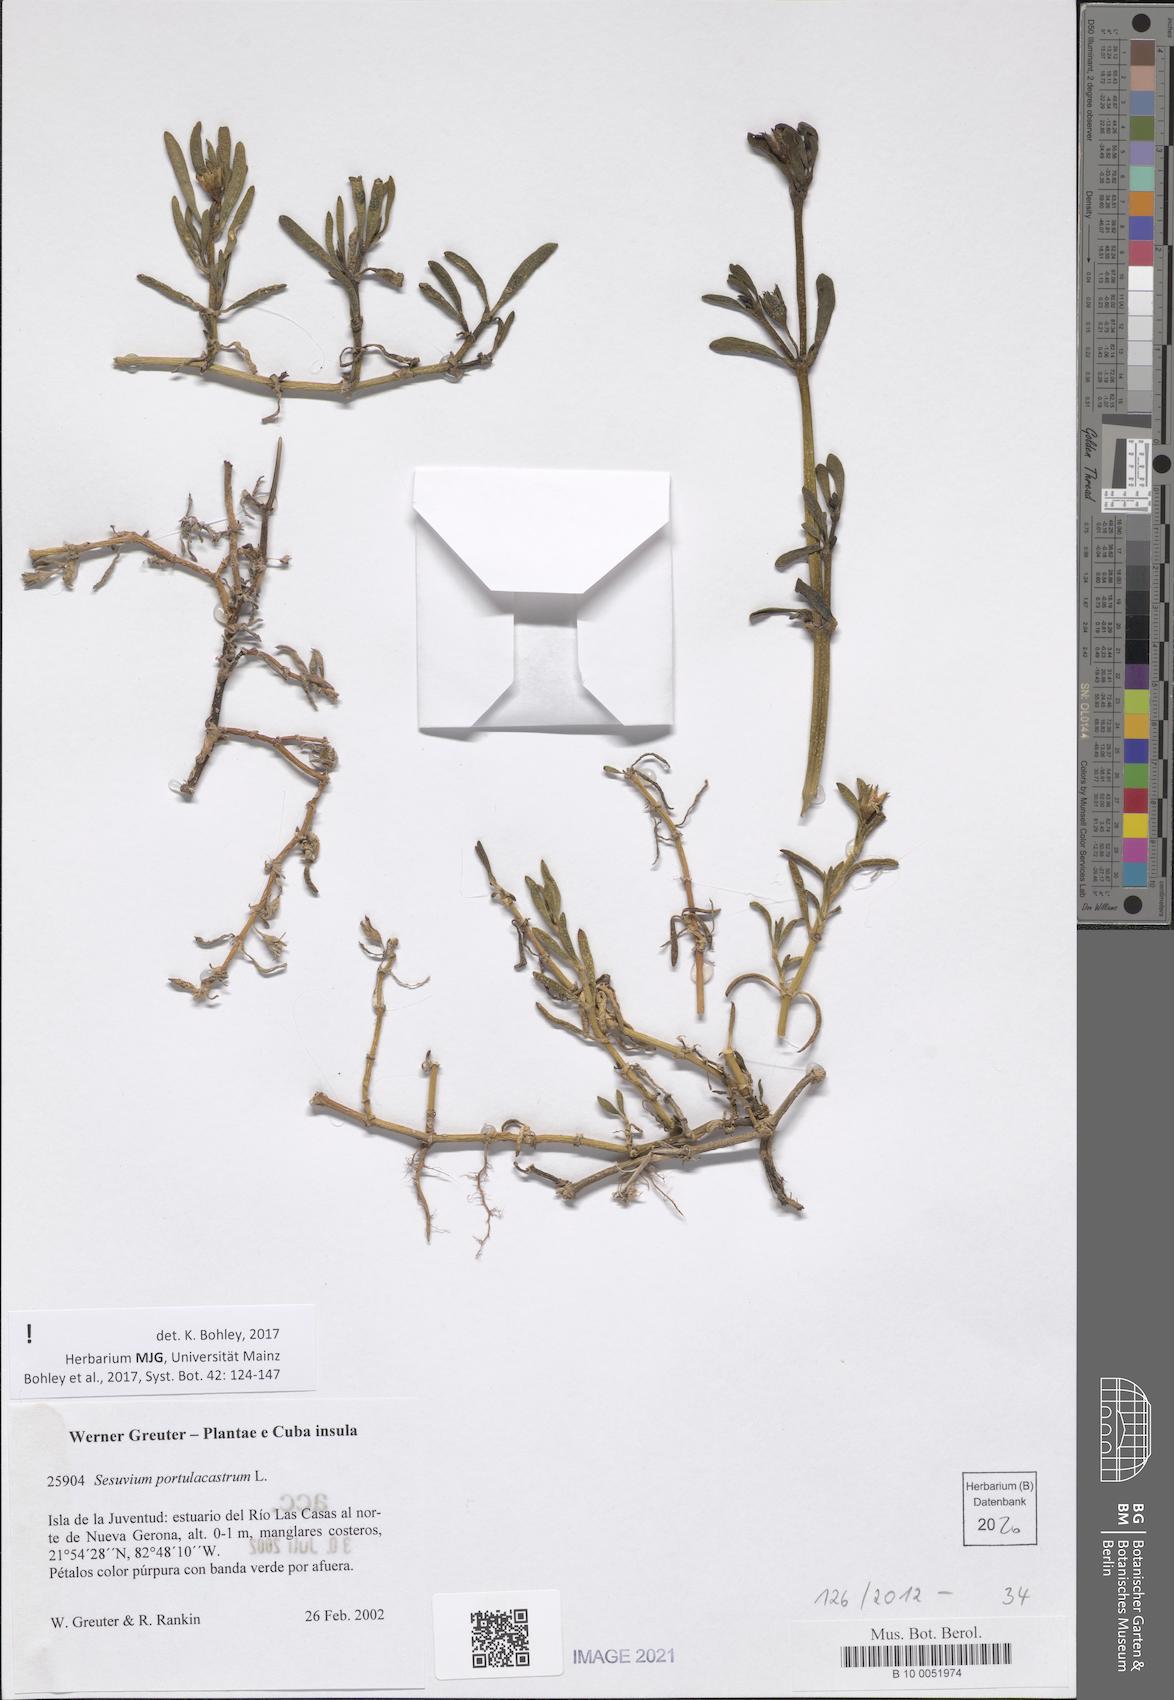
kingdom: Plantae
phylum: Tracheophyta
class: Magnoliopsida
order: Caryophyllales
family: Aizoaceae
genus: Sesuvium
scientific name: Sesuvium portulacastrum
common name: Sea-purslane
